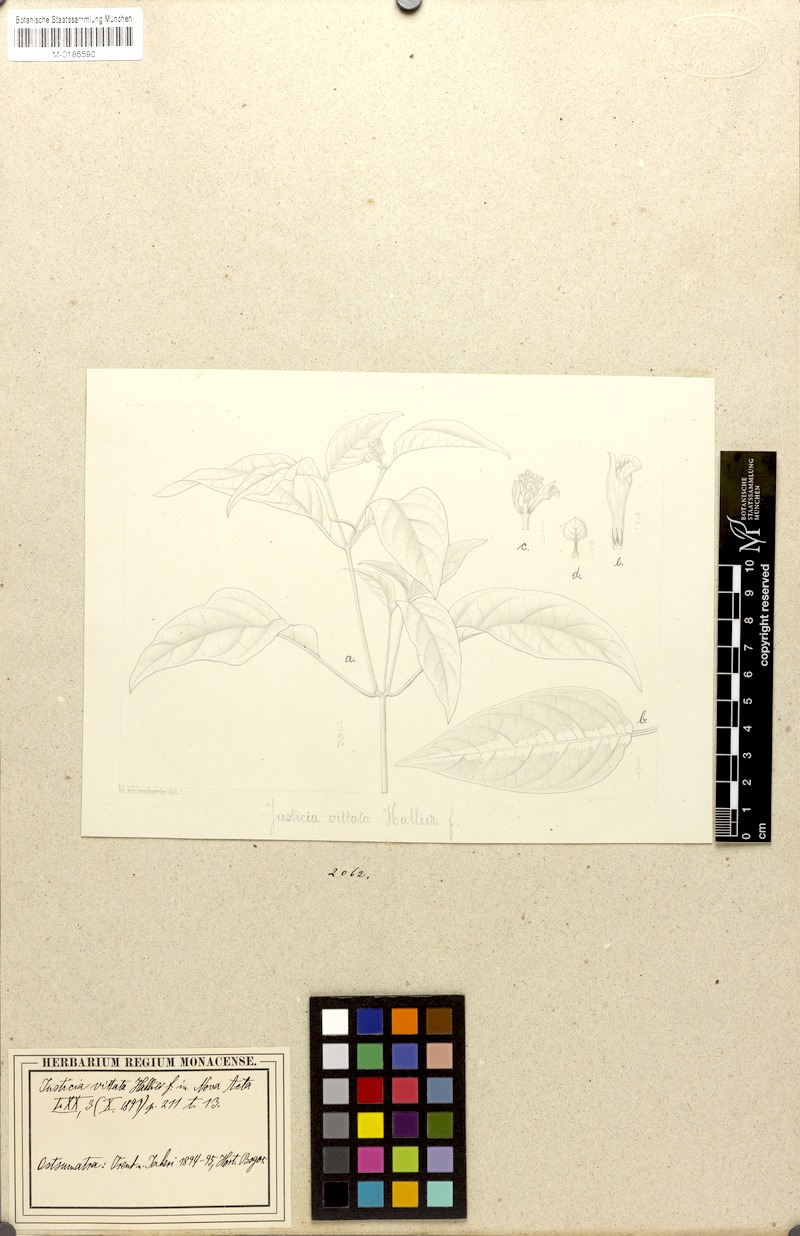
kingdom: Plantae
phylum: Tracheophyta
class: Magnoliopsida
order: Lamiales
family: Acanthaceae
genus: Justicia
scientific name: Justicia sumatrana
